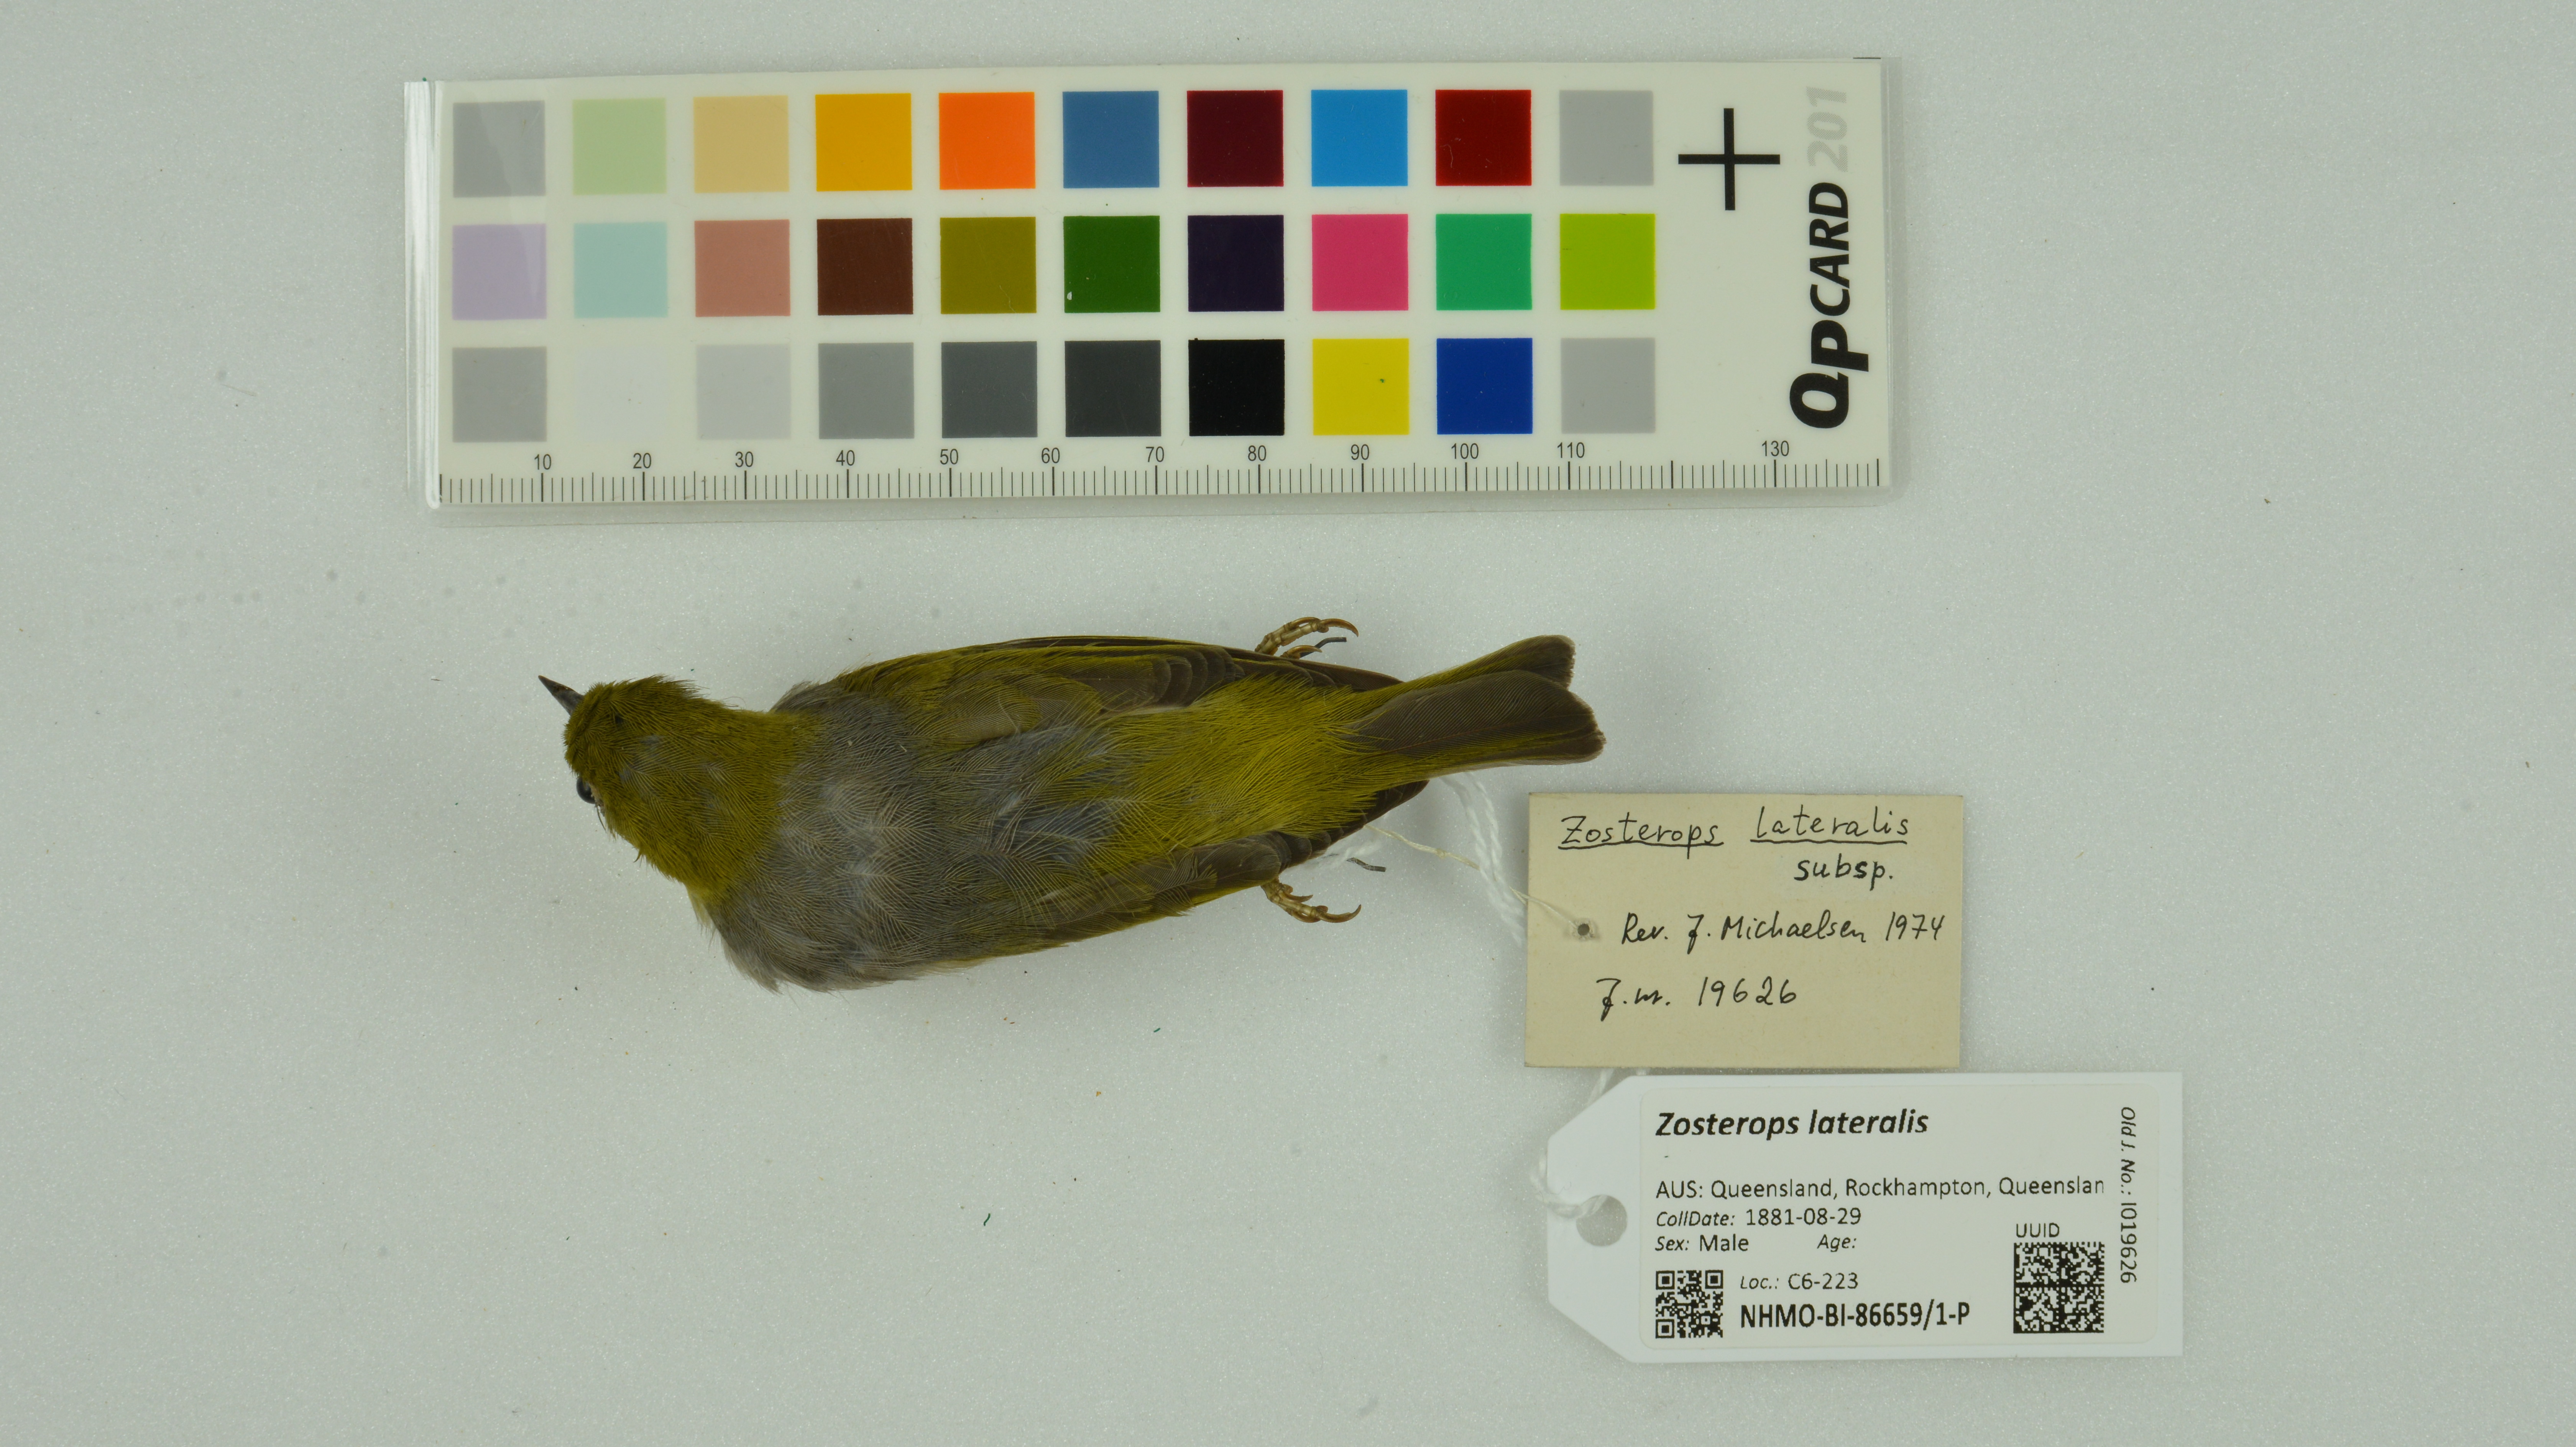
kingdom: Animalia
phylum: Chordata
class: Aves
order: Passeriformes
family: Zosteropidae
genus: Zosterops
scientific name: Zosterops lateralis
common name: Silvereye
